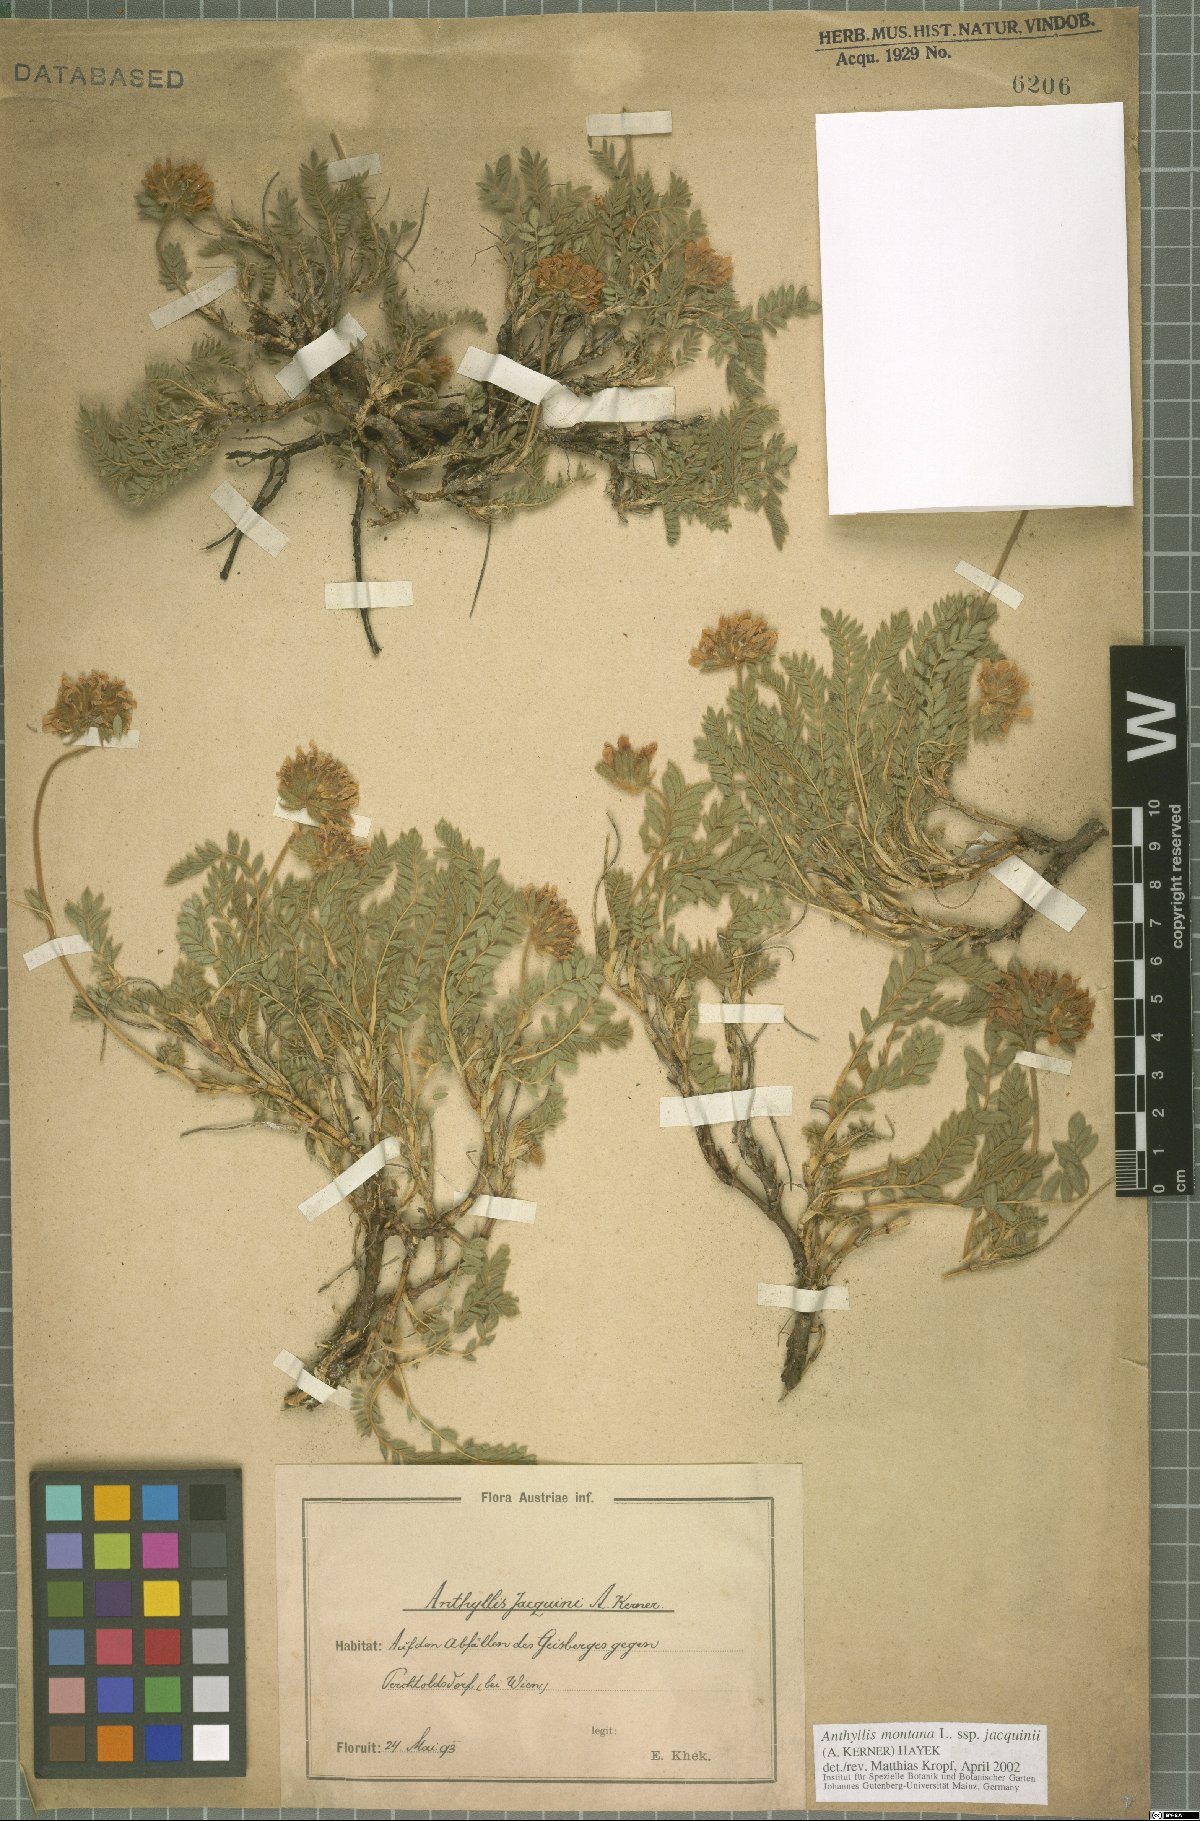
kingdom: Plantae
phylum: Tracheophyta
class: Magnoliopsida
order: Fabales
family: Fabaceae
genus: Anthyllis
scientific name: Anthyllis montana
